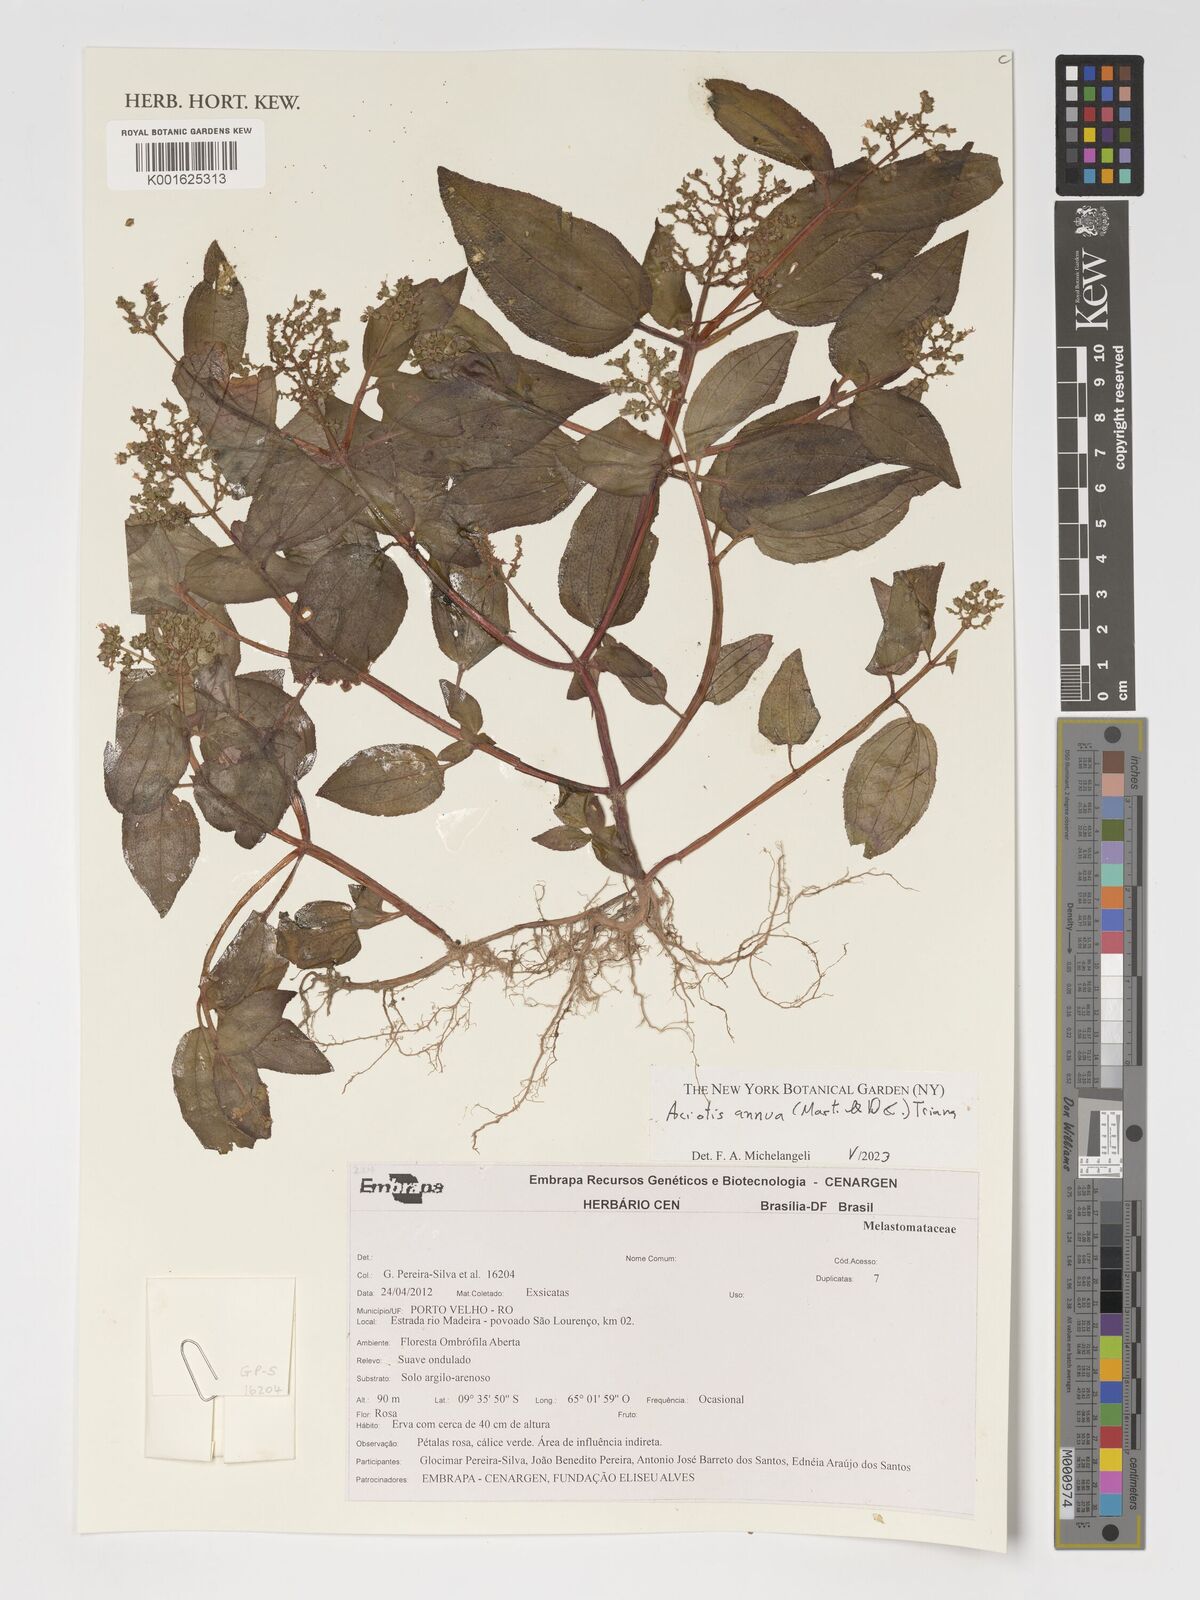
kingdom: Plantae
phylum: Tracheophyta
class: Magnoliopsida
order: Myrtales
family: Melastomataceae
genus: Aciotis
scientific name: Aciotis annua
